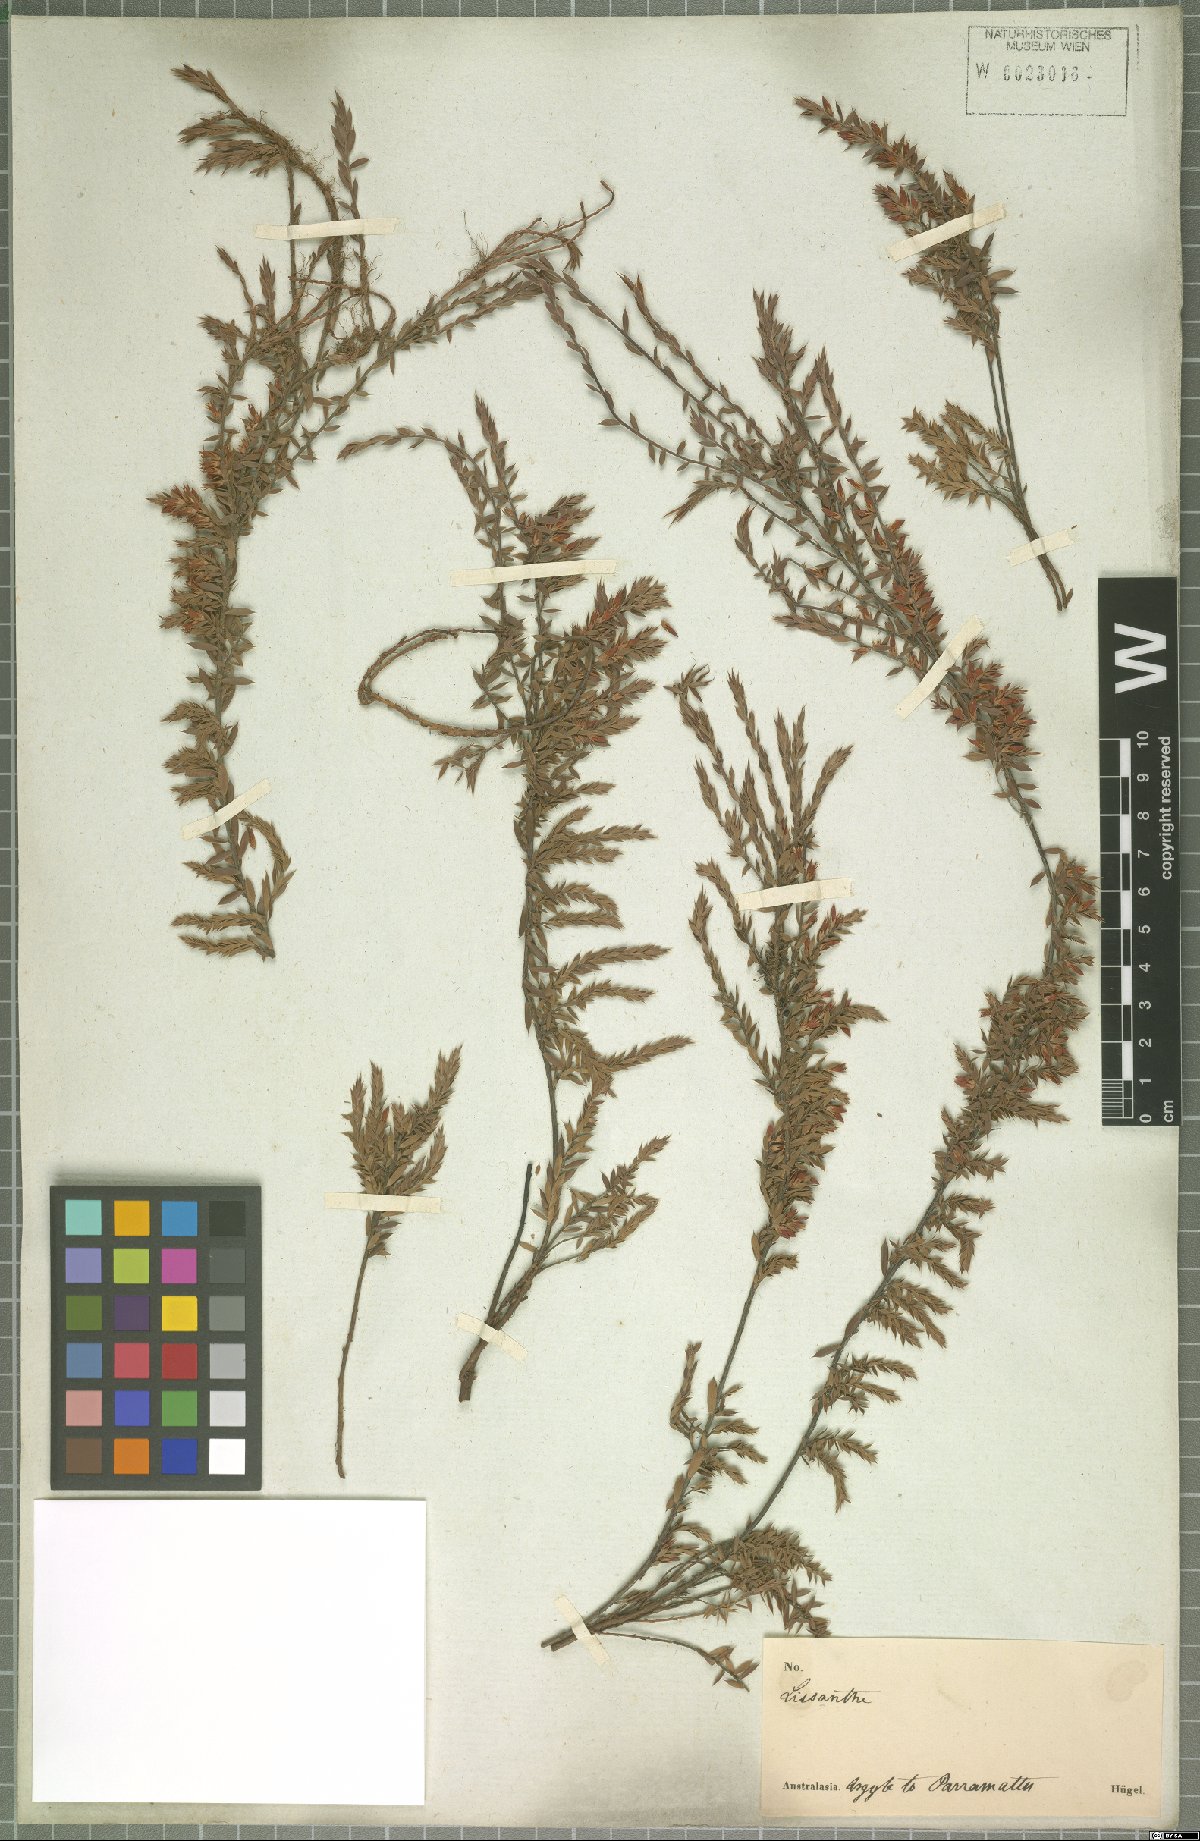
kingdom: Plantae
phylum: Tracheophyta
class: Magnoliopsida
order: Ericales
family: Ericaceae
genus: Styphelia
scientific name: Styphelia
